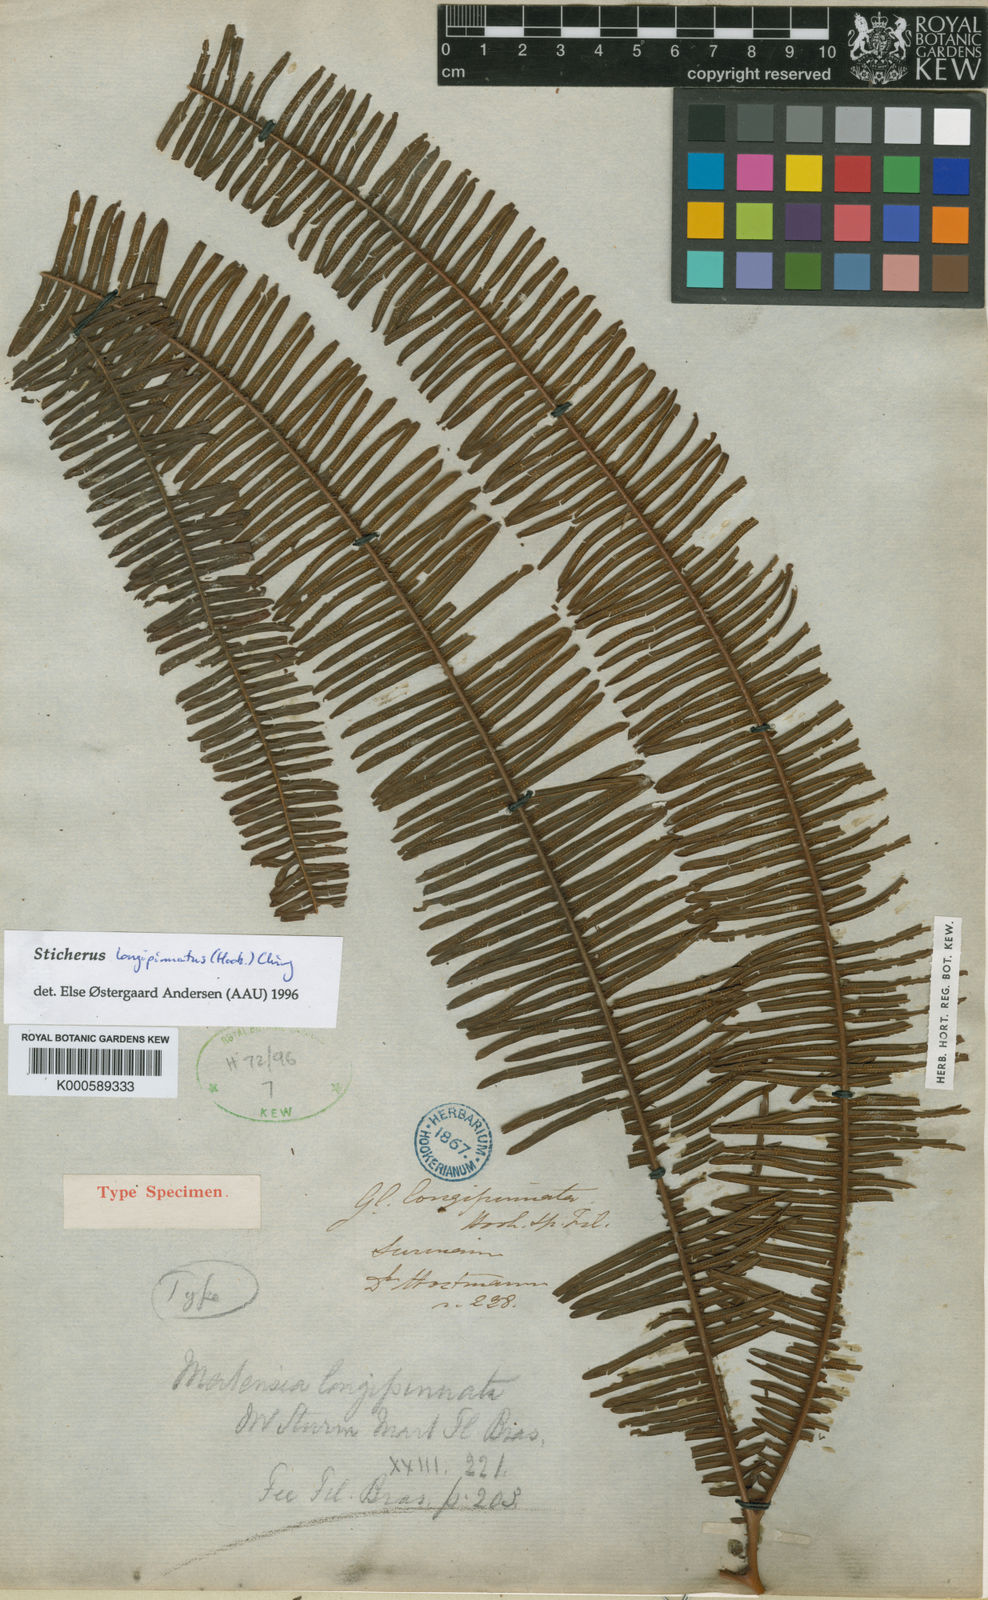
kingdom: Plantae
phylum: Tracheophyta
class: Polypodiopsida
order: Gleicheniales
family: Gleicheniaceae
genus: Sticherus
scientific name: Sticherus longipinnatus
